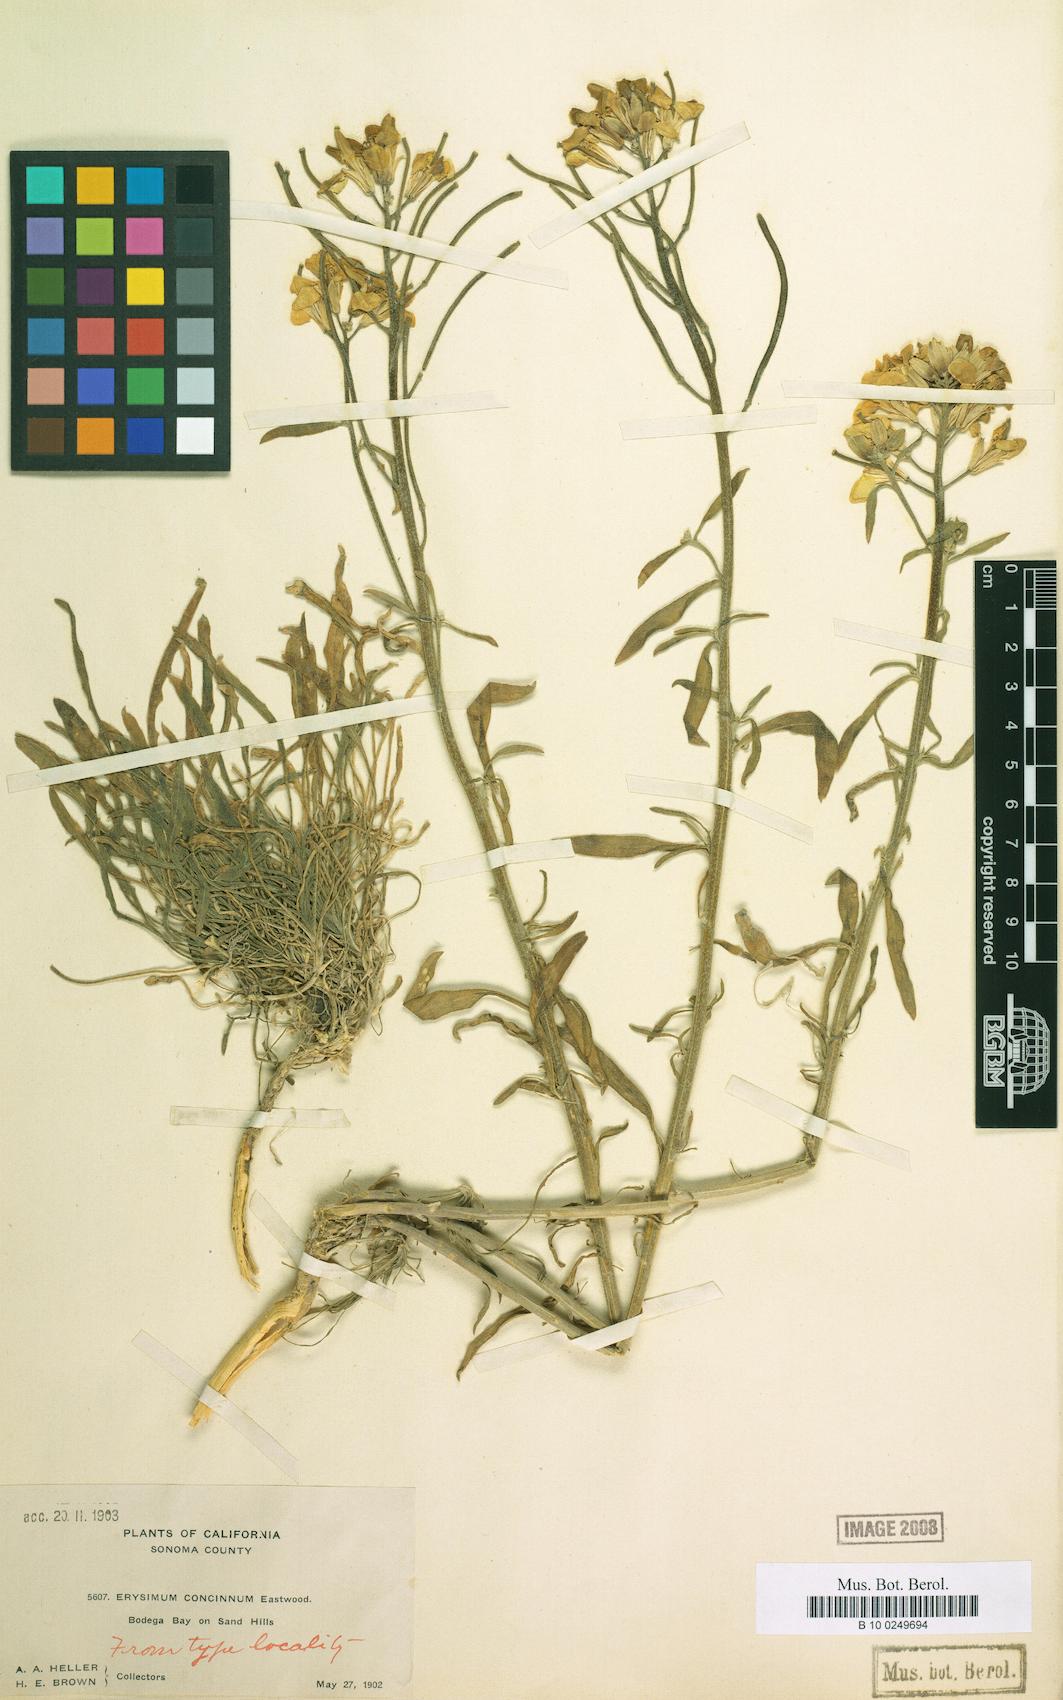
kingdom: Plantae
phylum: Tracheophyta
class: Magnoliopsida
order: Brassicales
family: Brassicaceae
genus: Erysimum
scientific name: Erysimum concinnum
